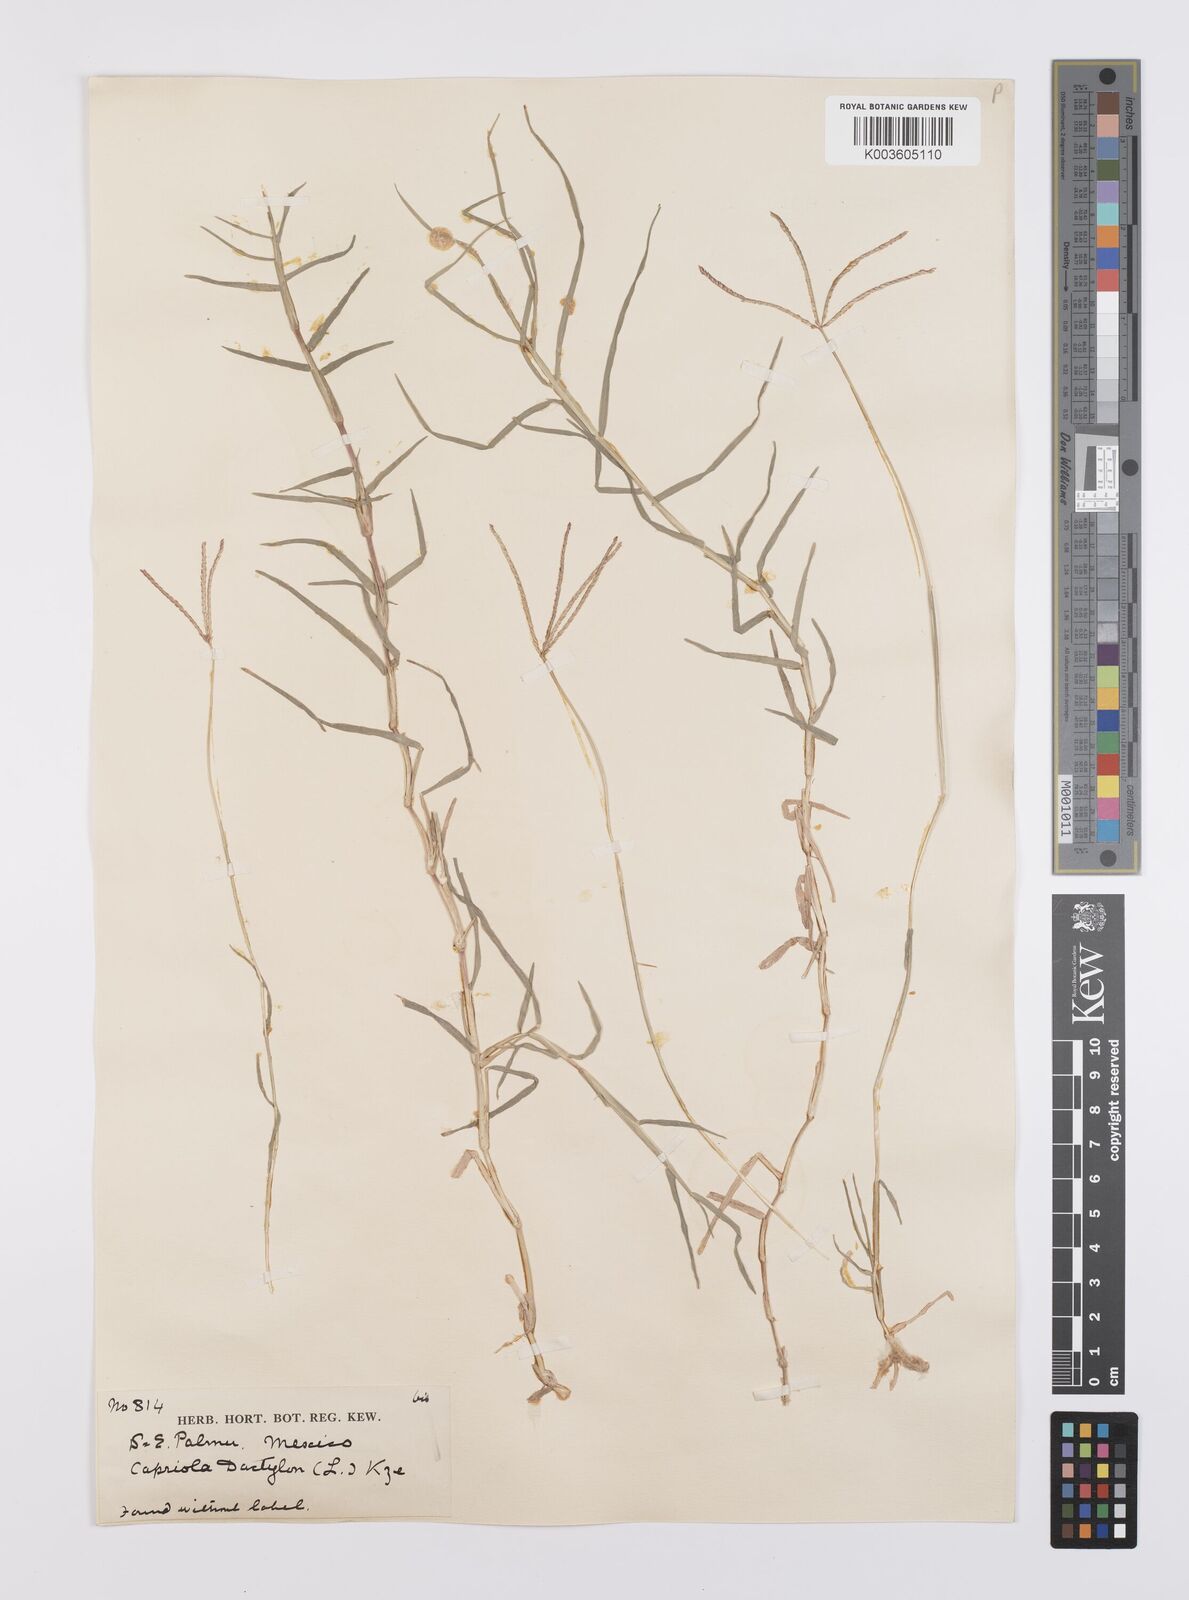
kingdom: Plantae
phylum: Tracheophyta
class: Liliopsida
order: Poales
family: Poaceae
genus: Cynodon
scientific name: Cynodon dactylon
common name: Bermuda grass
